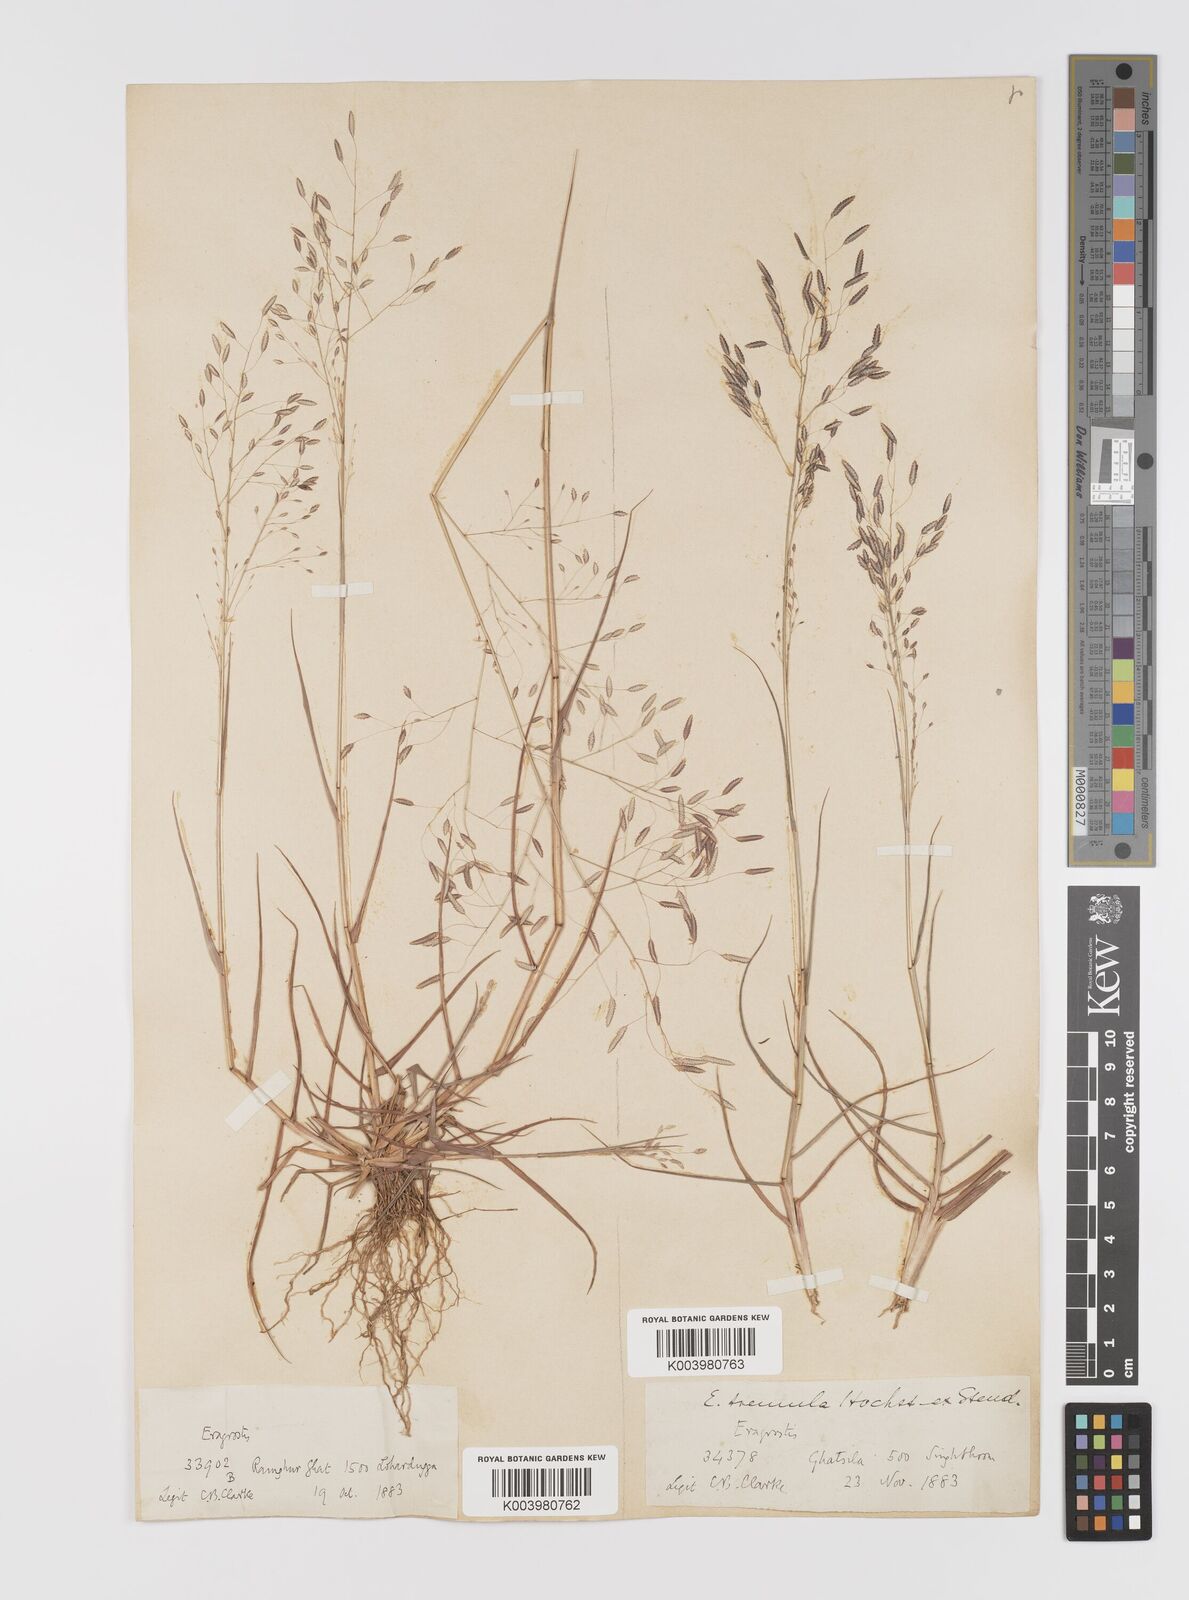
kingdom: Plantae
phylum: Tracheophyta
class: Liliopsida
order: Poales
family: Poaceae
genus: Eragrostis
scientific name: Eragrostis tremula
